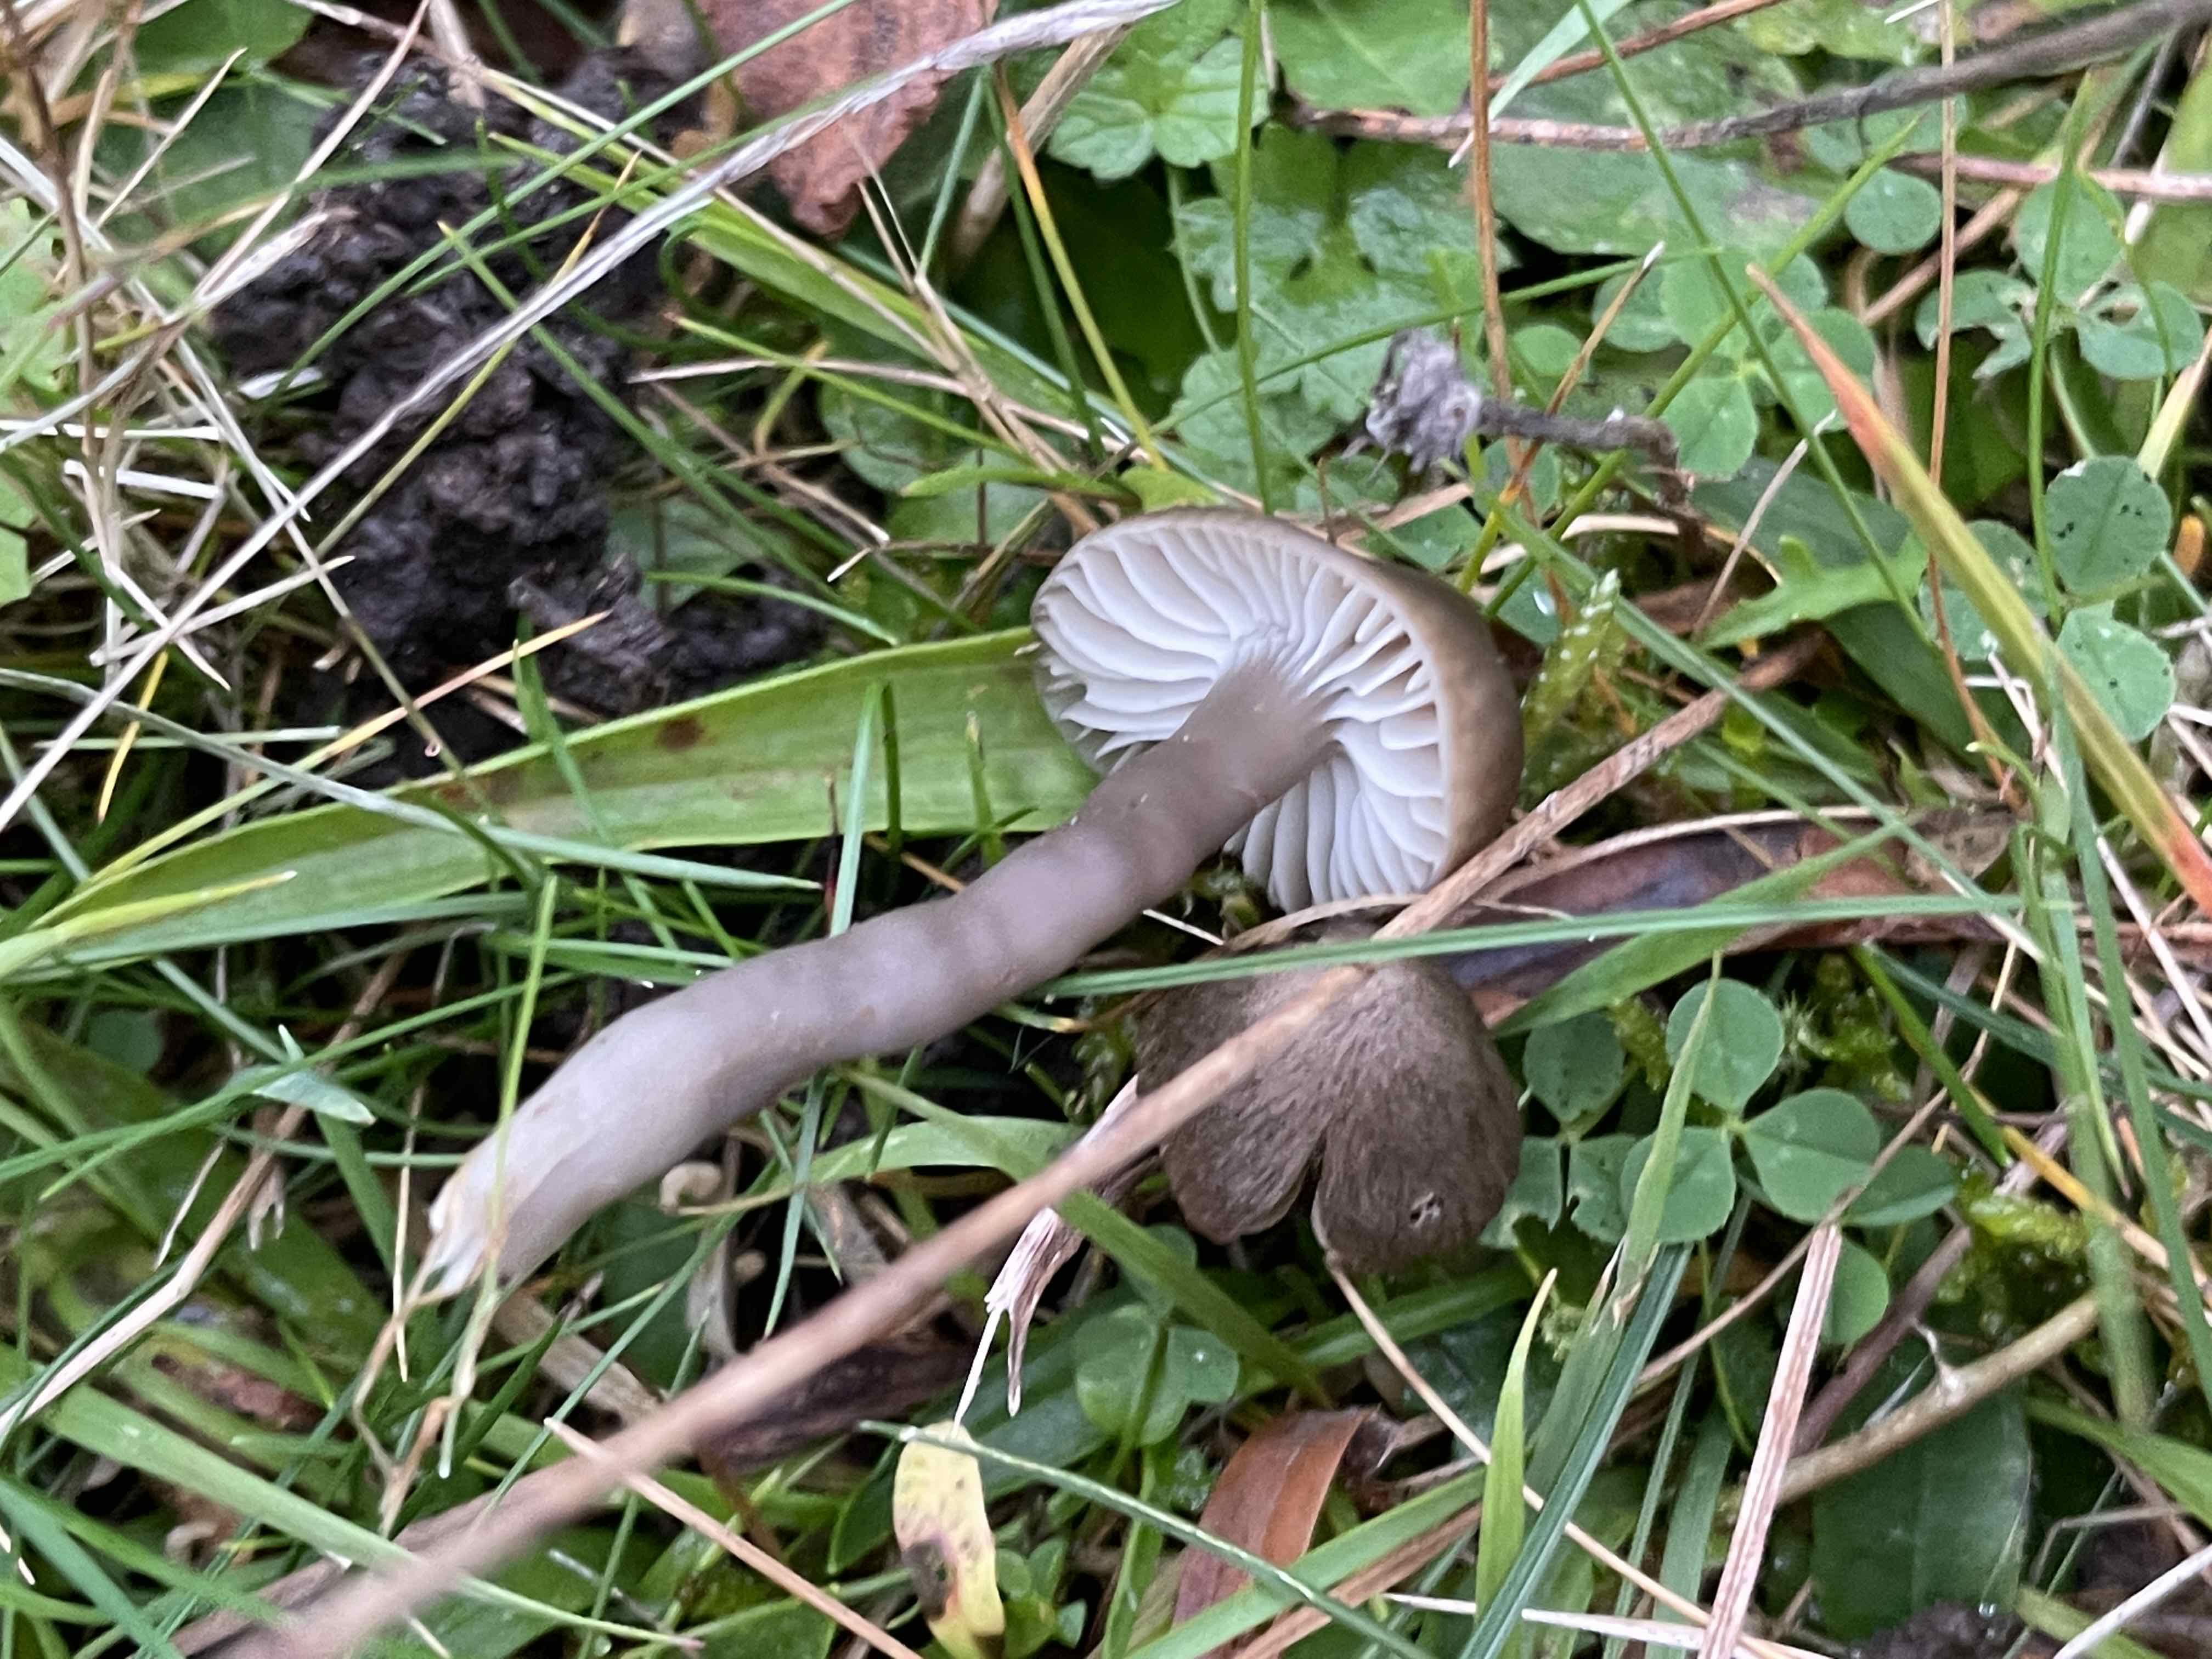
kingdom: Fungi
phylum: Basidiomycota
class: Agaricomycetes
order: Agaricales
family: Hygrophoraceae
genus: Gliophorus
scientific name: Gliophorus irrigatus
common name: slimet vokshat
